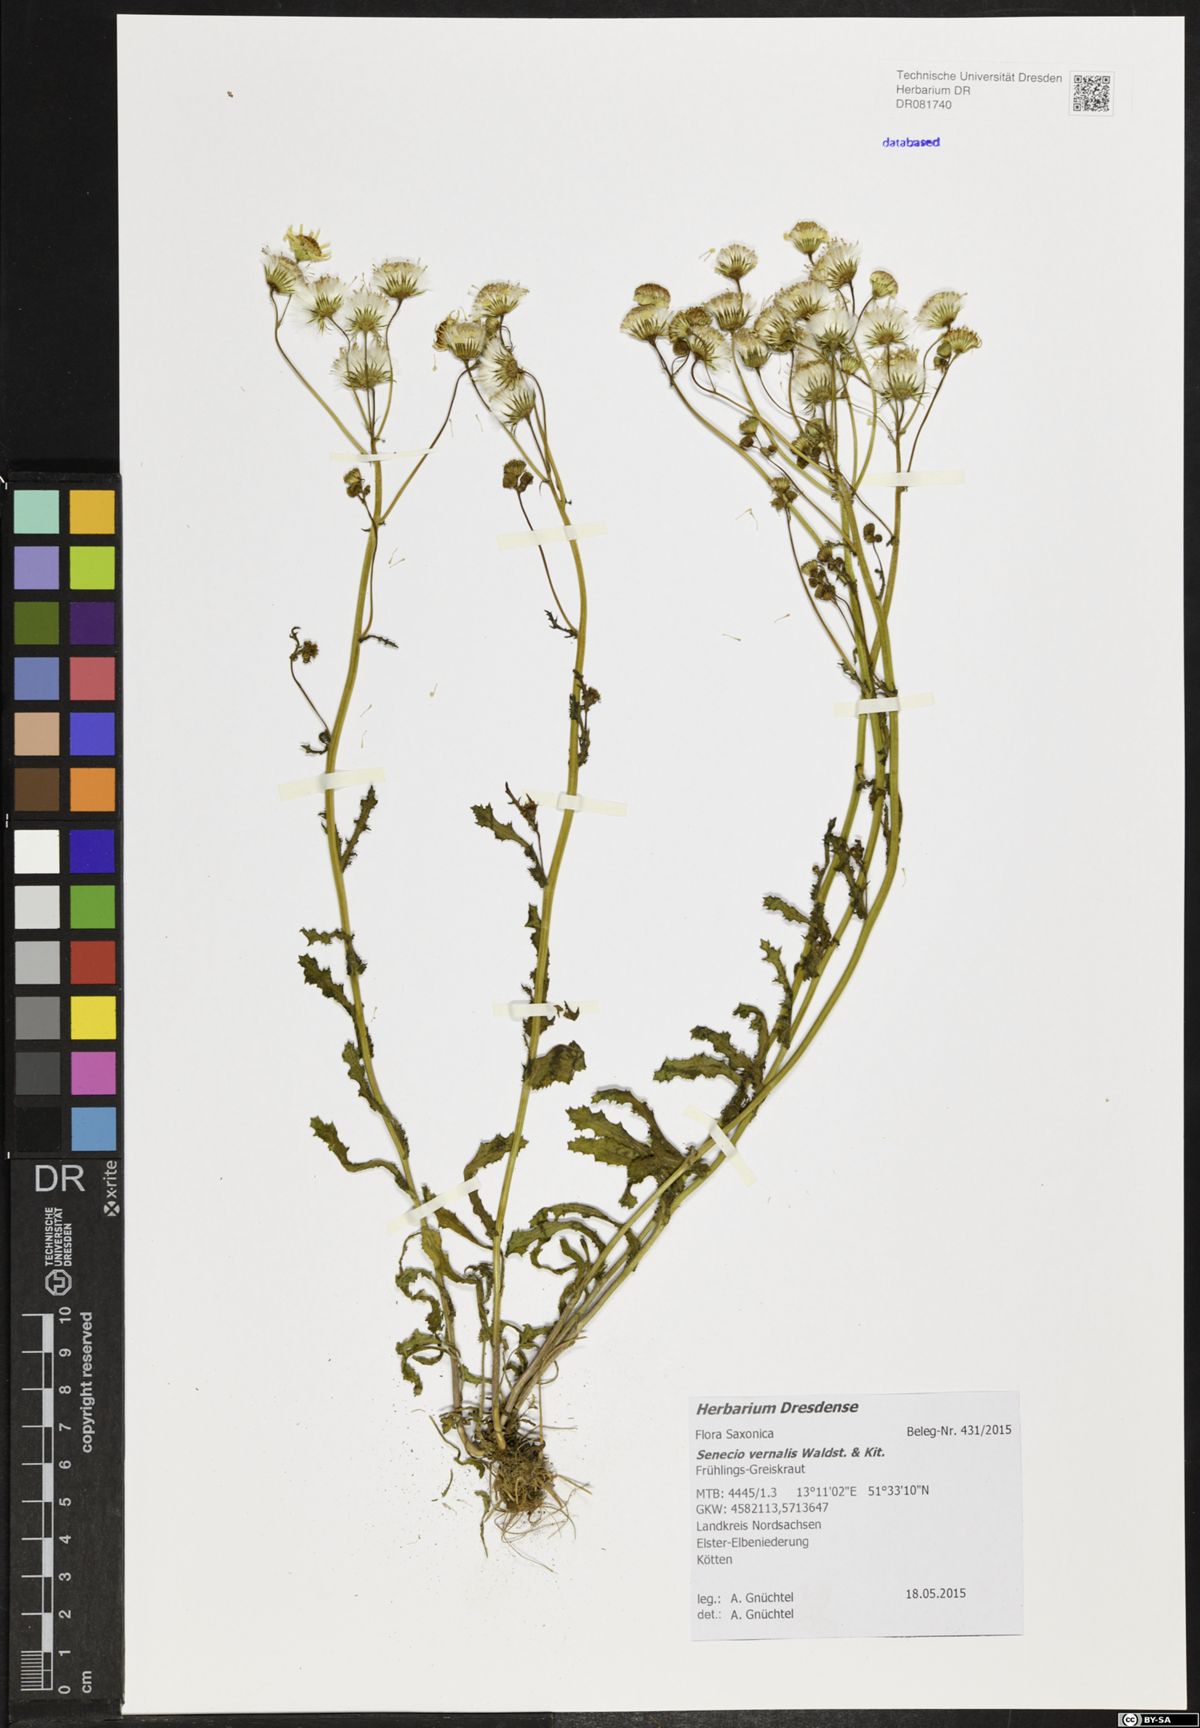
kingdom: Plantae
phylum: Tracheophyta
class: Magnoliopsida
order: Asterales
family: Asteraceae
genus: Senecio
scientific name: Senecio vernalis
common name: Eastern groundsel
